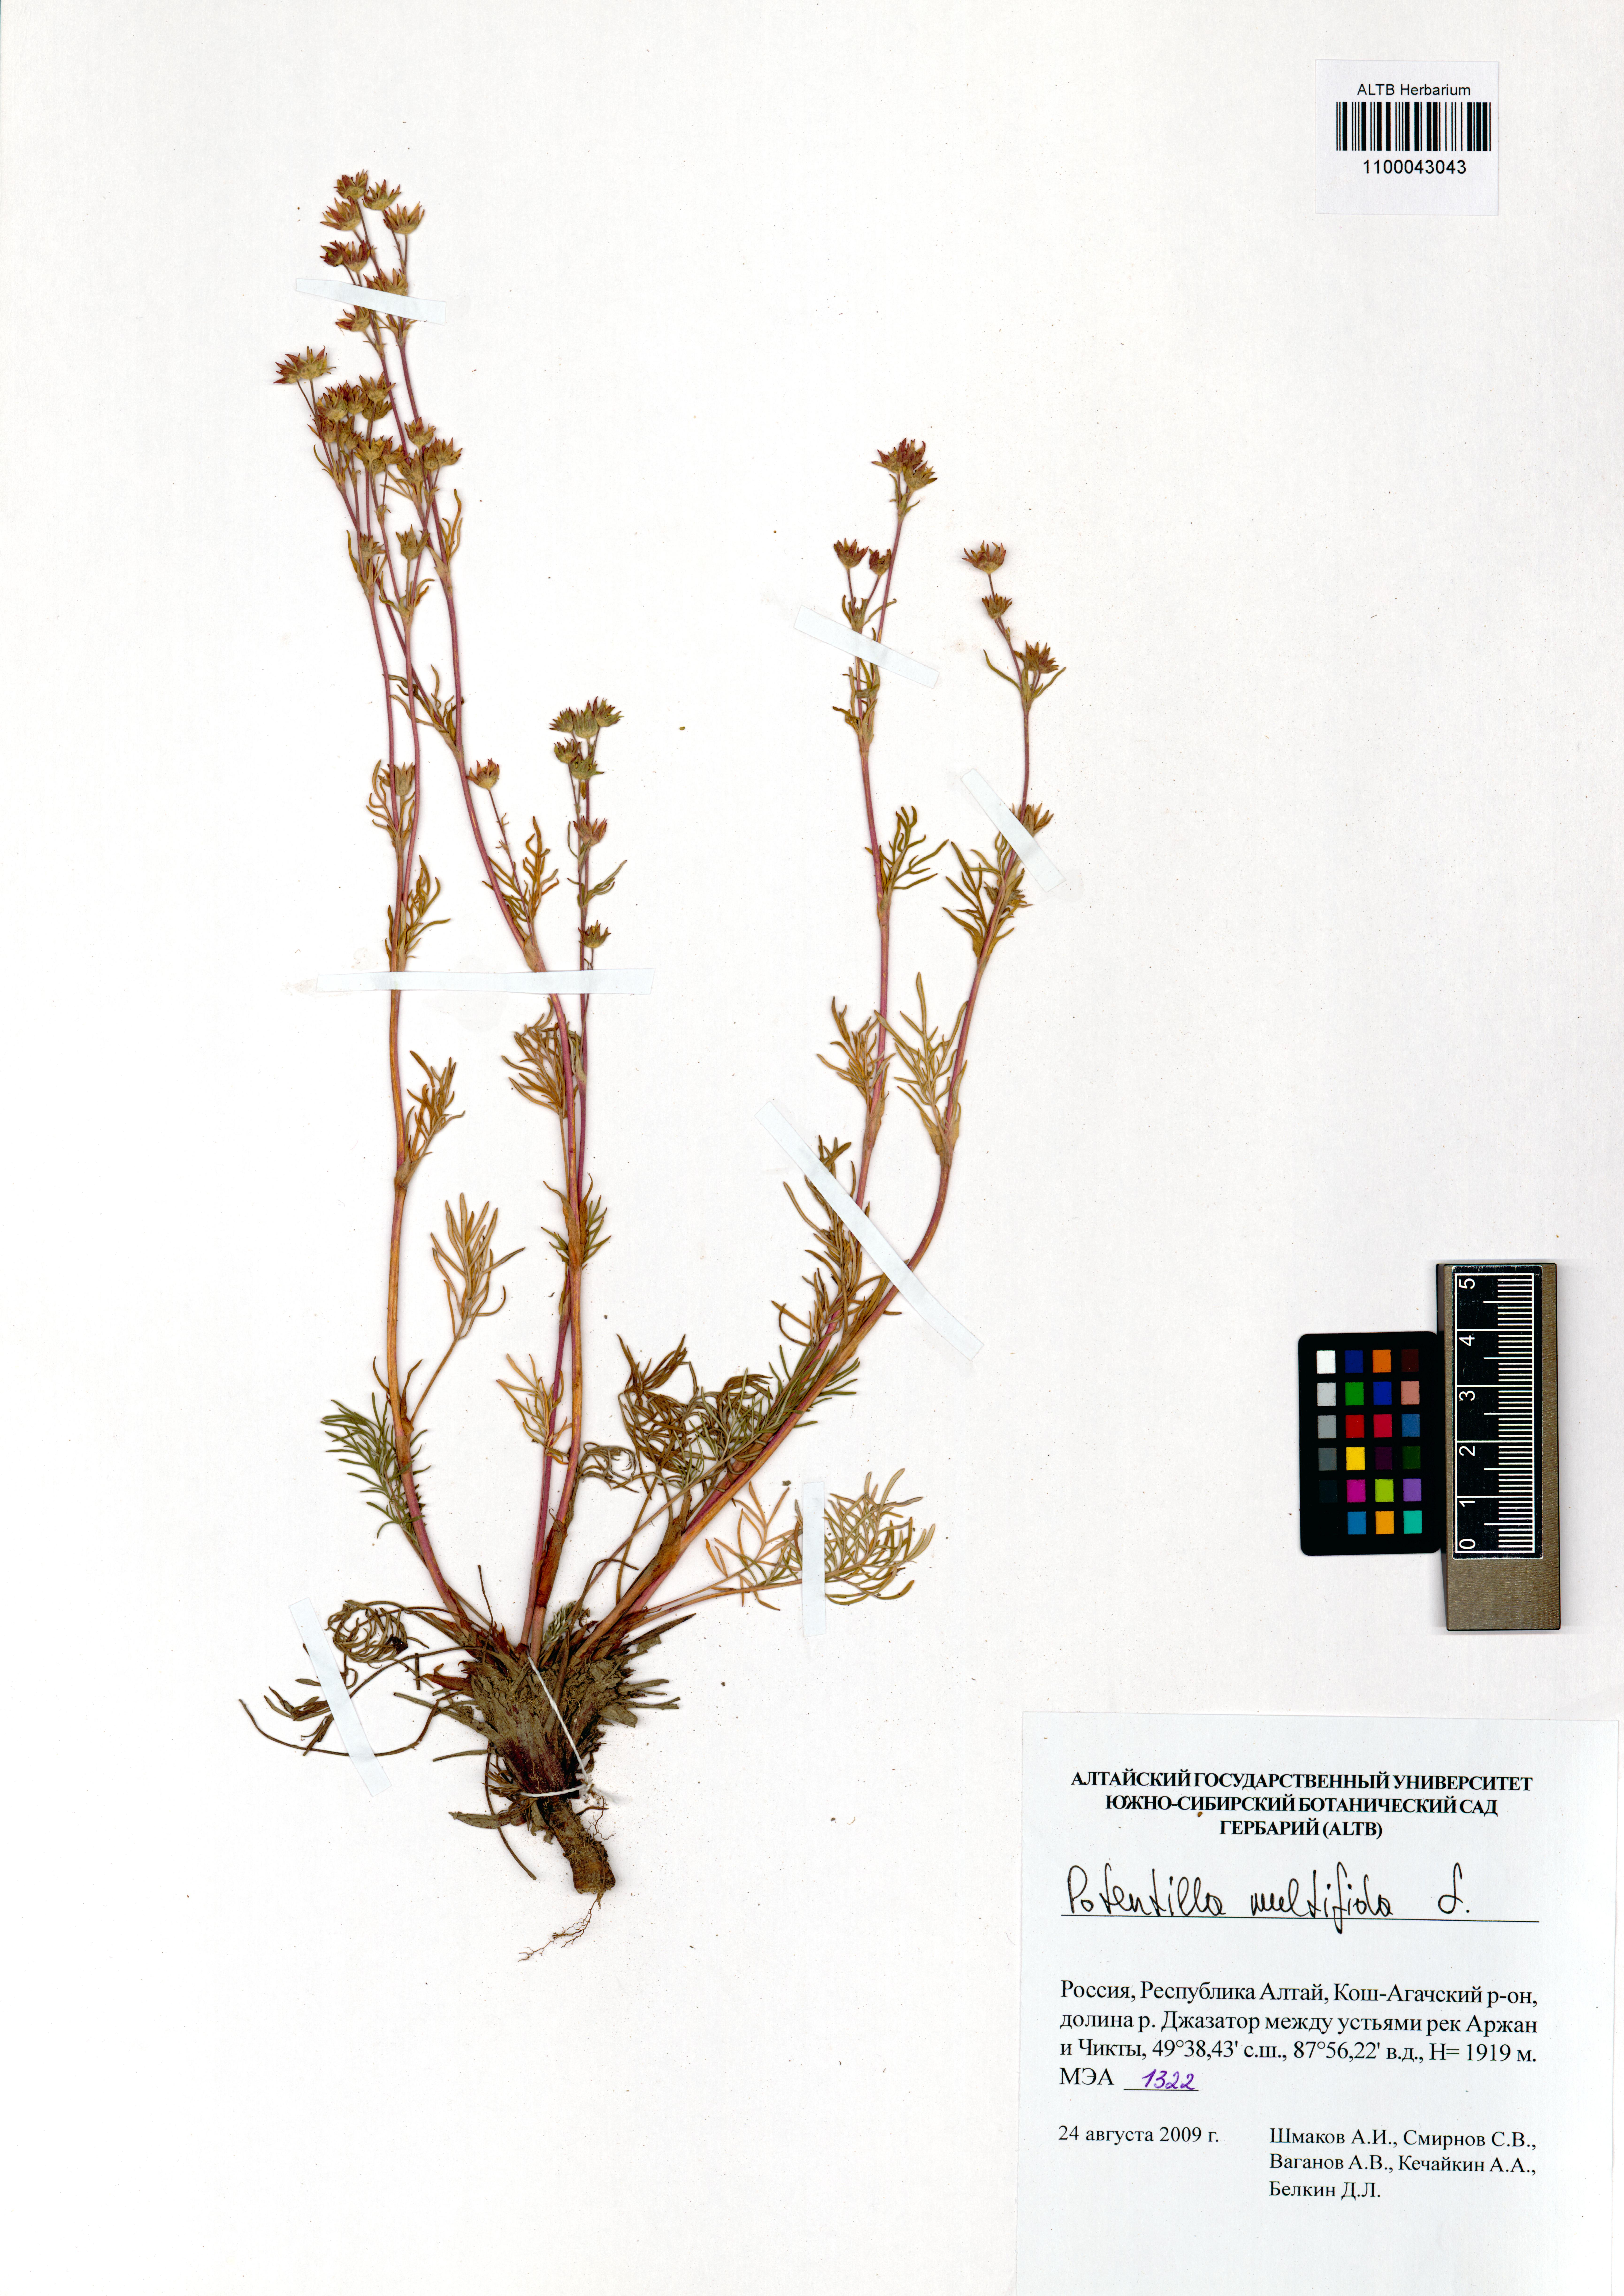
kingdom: Plantae
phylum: Tracheophyta
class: Magnoliopsida
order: Rosales
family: Rosaceae
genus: Potentilla
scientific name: Potentilla multifida
